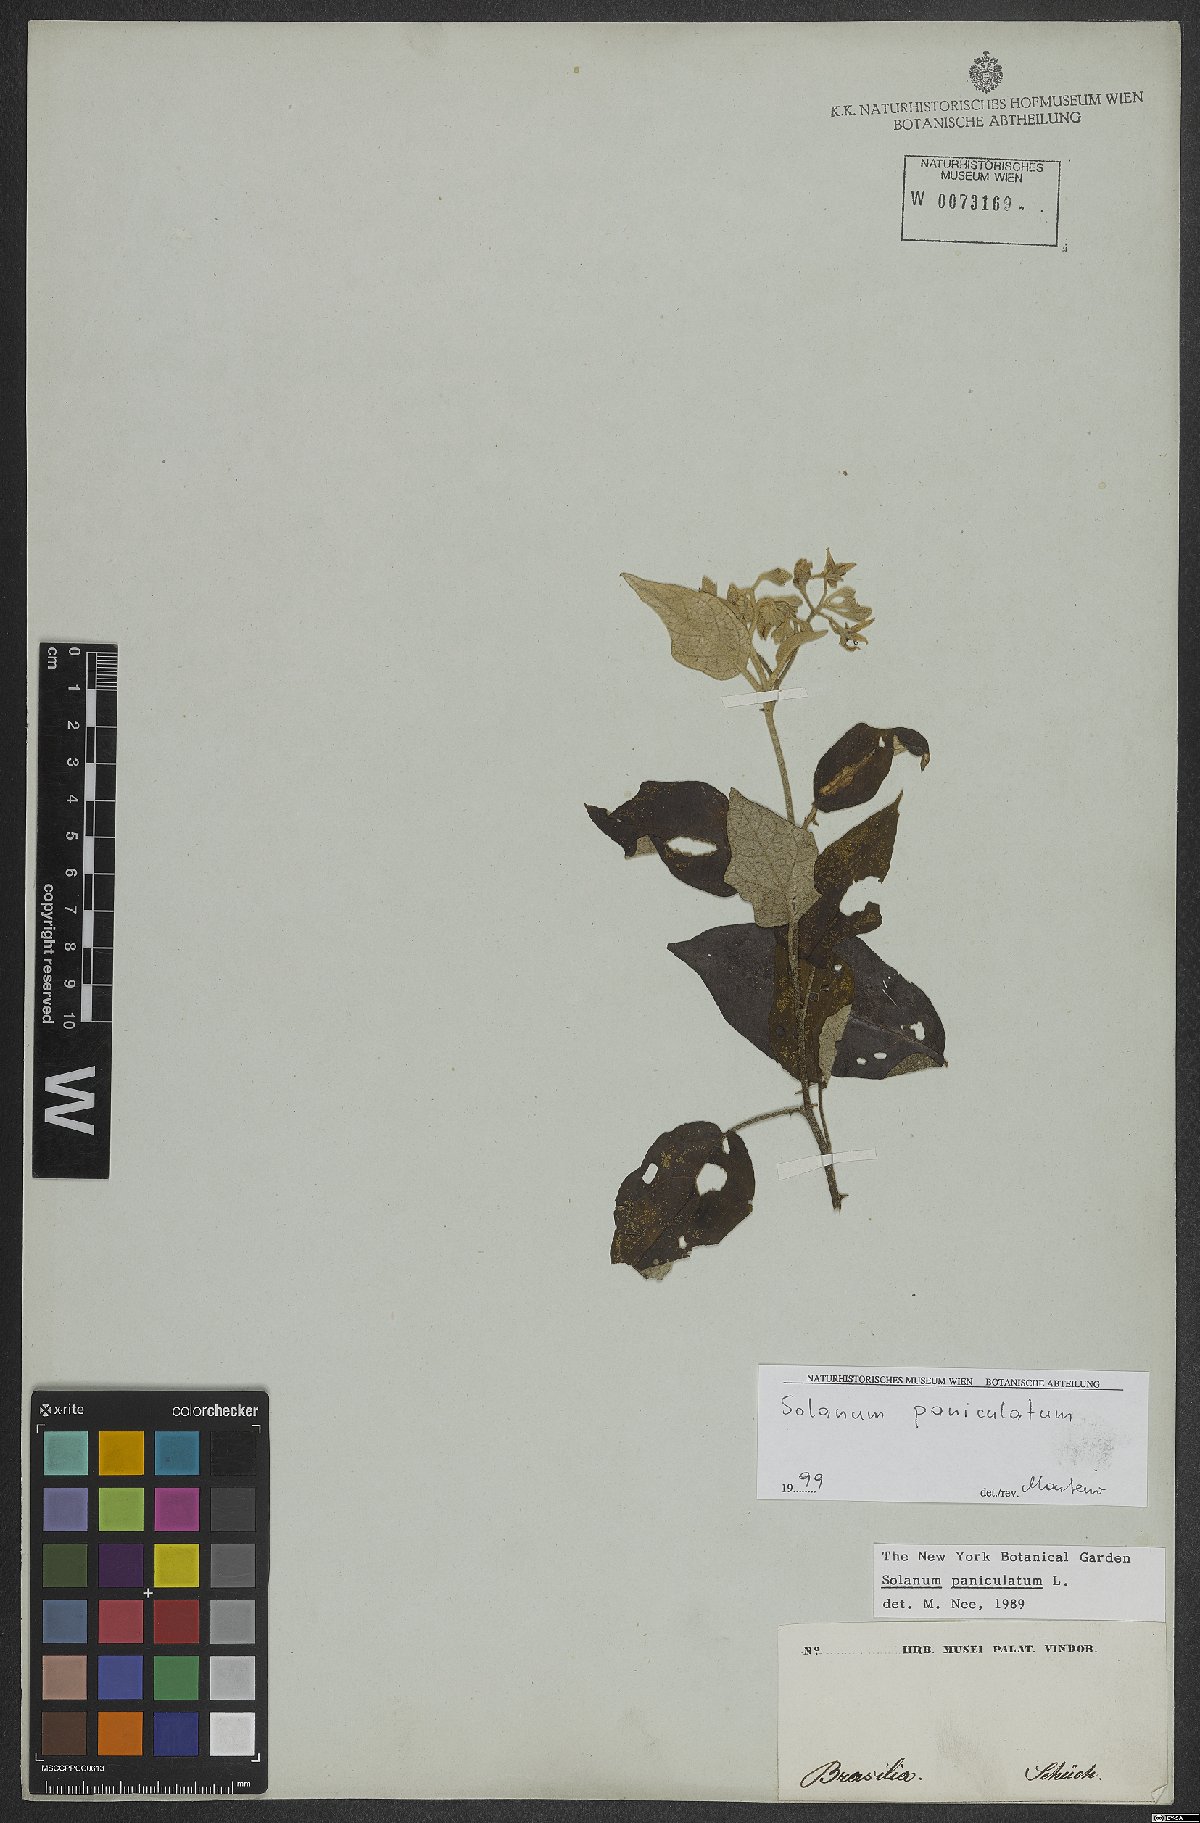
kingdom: Plantae
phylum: Tracheophyta
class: Magnoliopsida
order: Solanales
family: Solanaceae
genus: Solanum
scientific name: Solanum paniculatum
